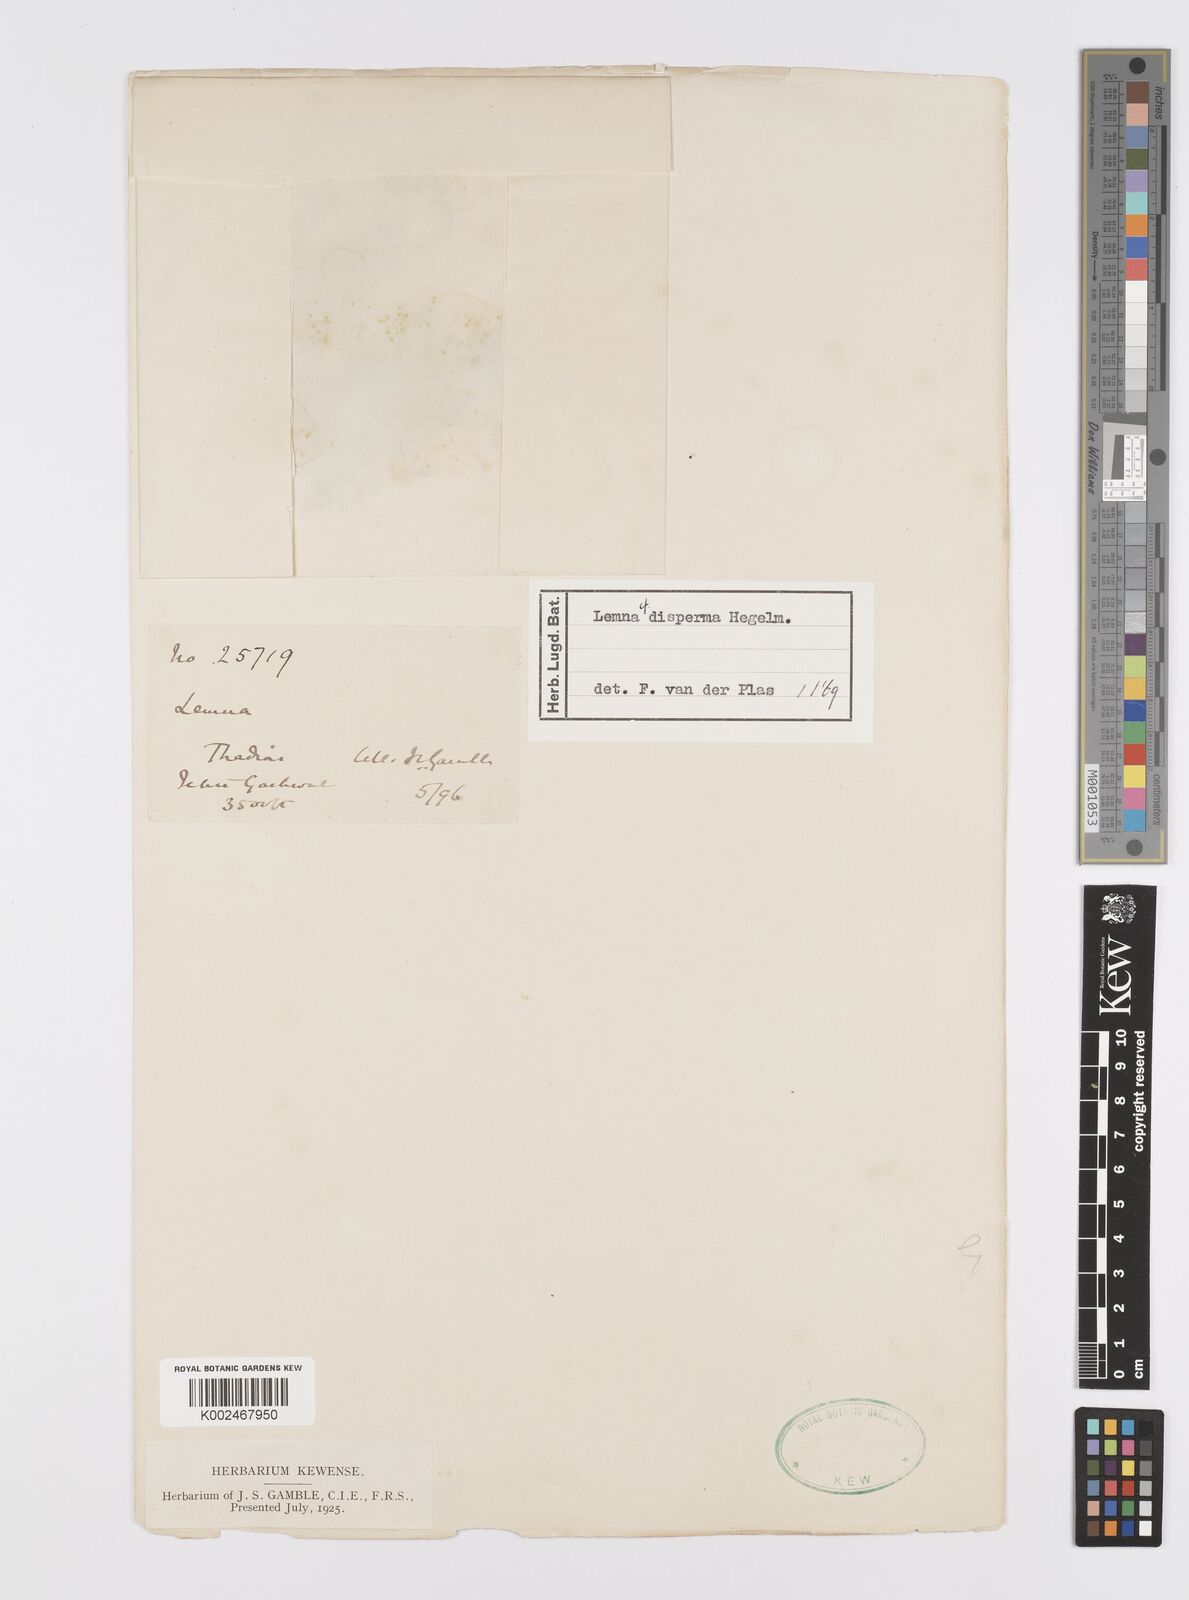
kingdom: Plantae
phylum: Tracheophyta
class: Liliopsida
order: Alismatales
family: Araceae
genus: Lemna
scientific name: Lemna disperma
